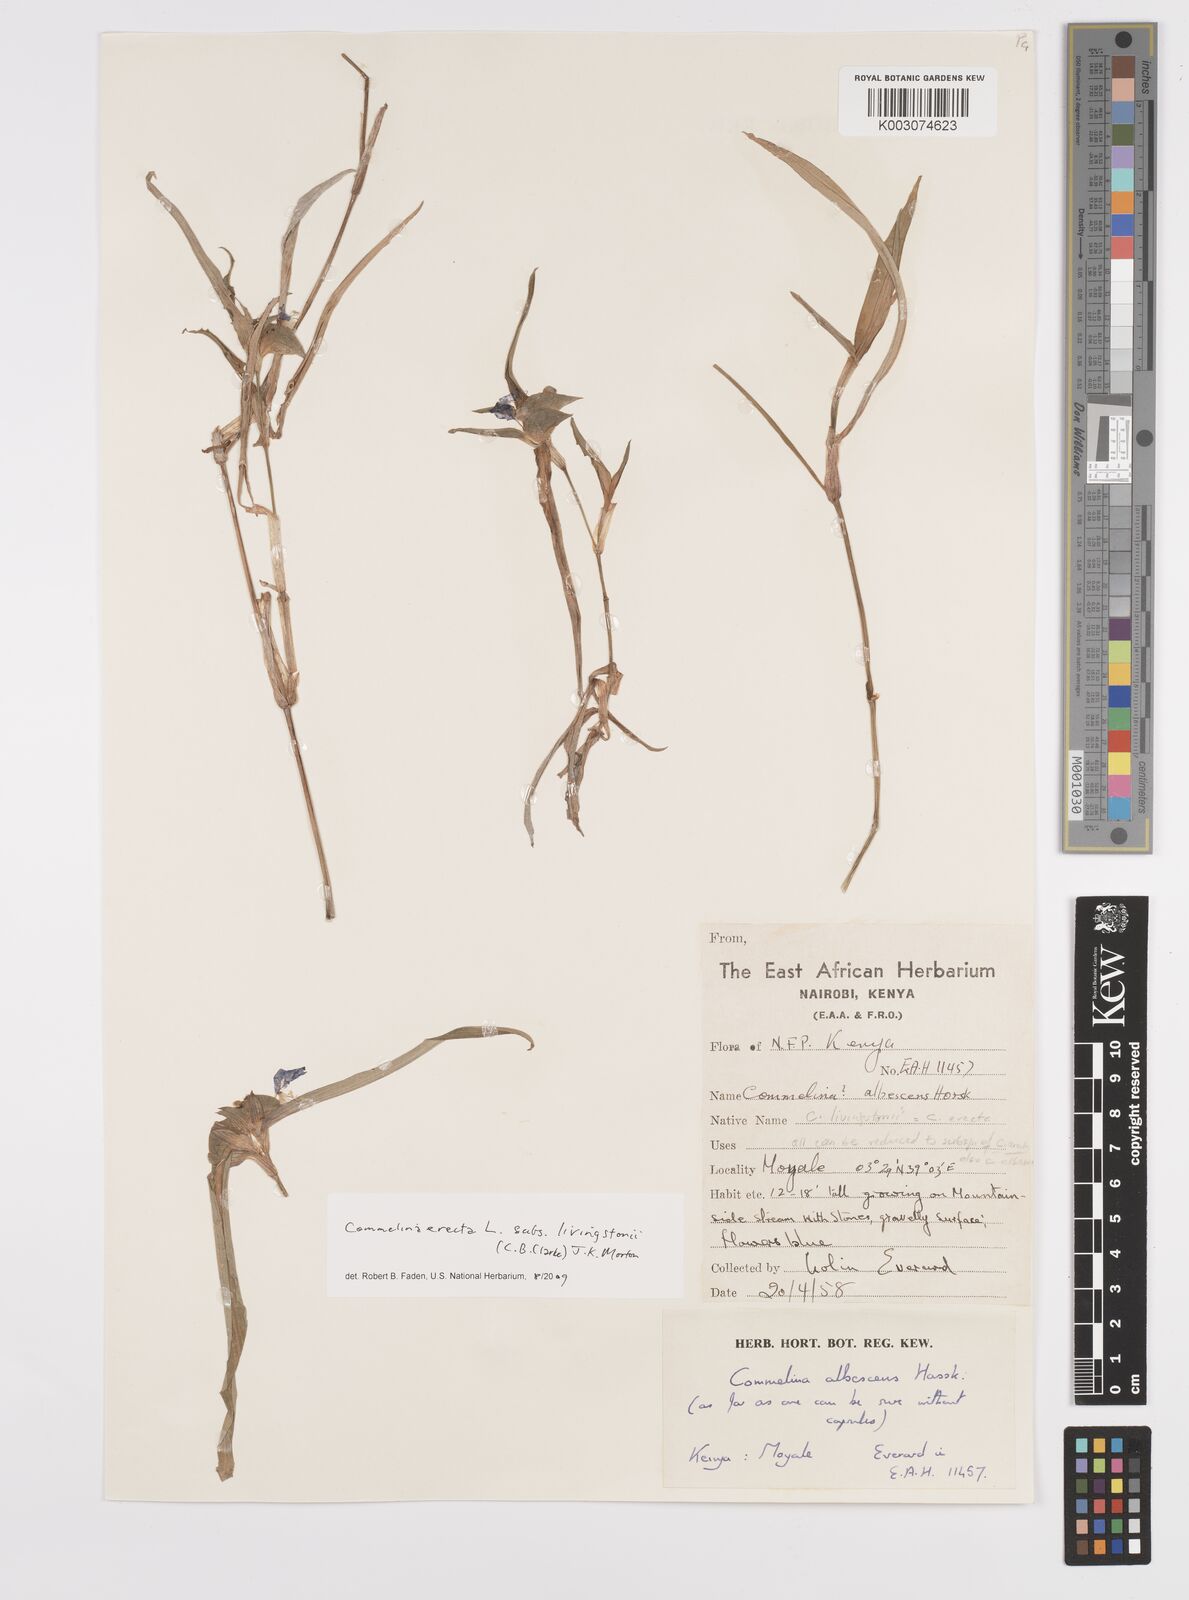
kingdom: Plantae
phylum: Tracheophyta
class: Liliopsida
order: Commelinales
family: Commelinaceae
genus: Commelina
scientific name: Commelina erecta
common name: Blousel blommetjie
